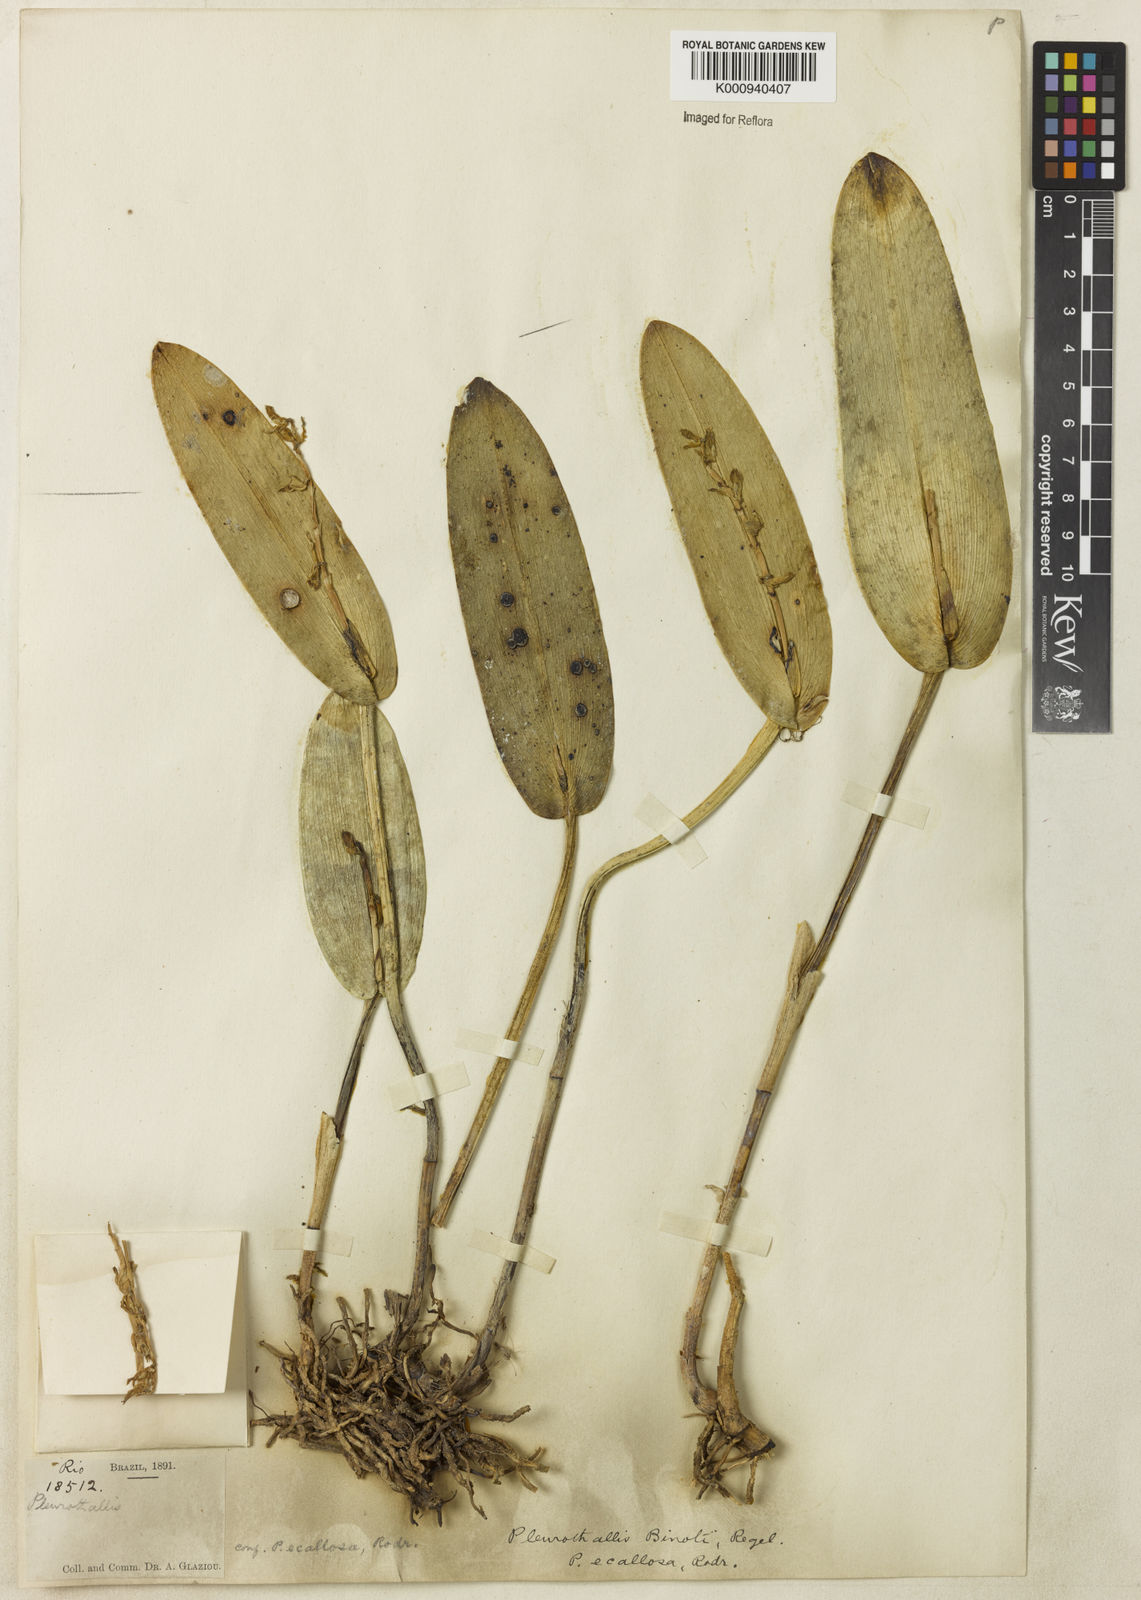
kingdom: Plantae
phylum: Tracheophyta
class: Liliopsida
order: Asparagales
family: Orchidaceae
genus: Acianthera
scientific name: Acianthera binotii
